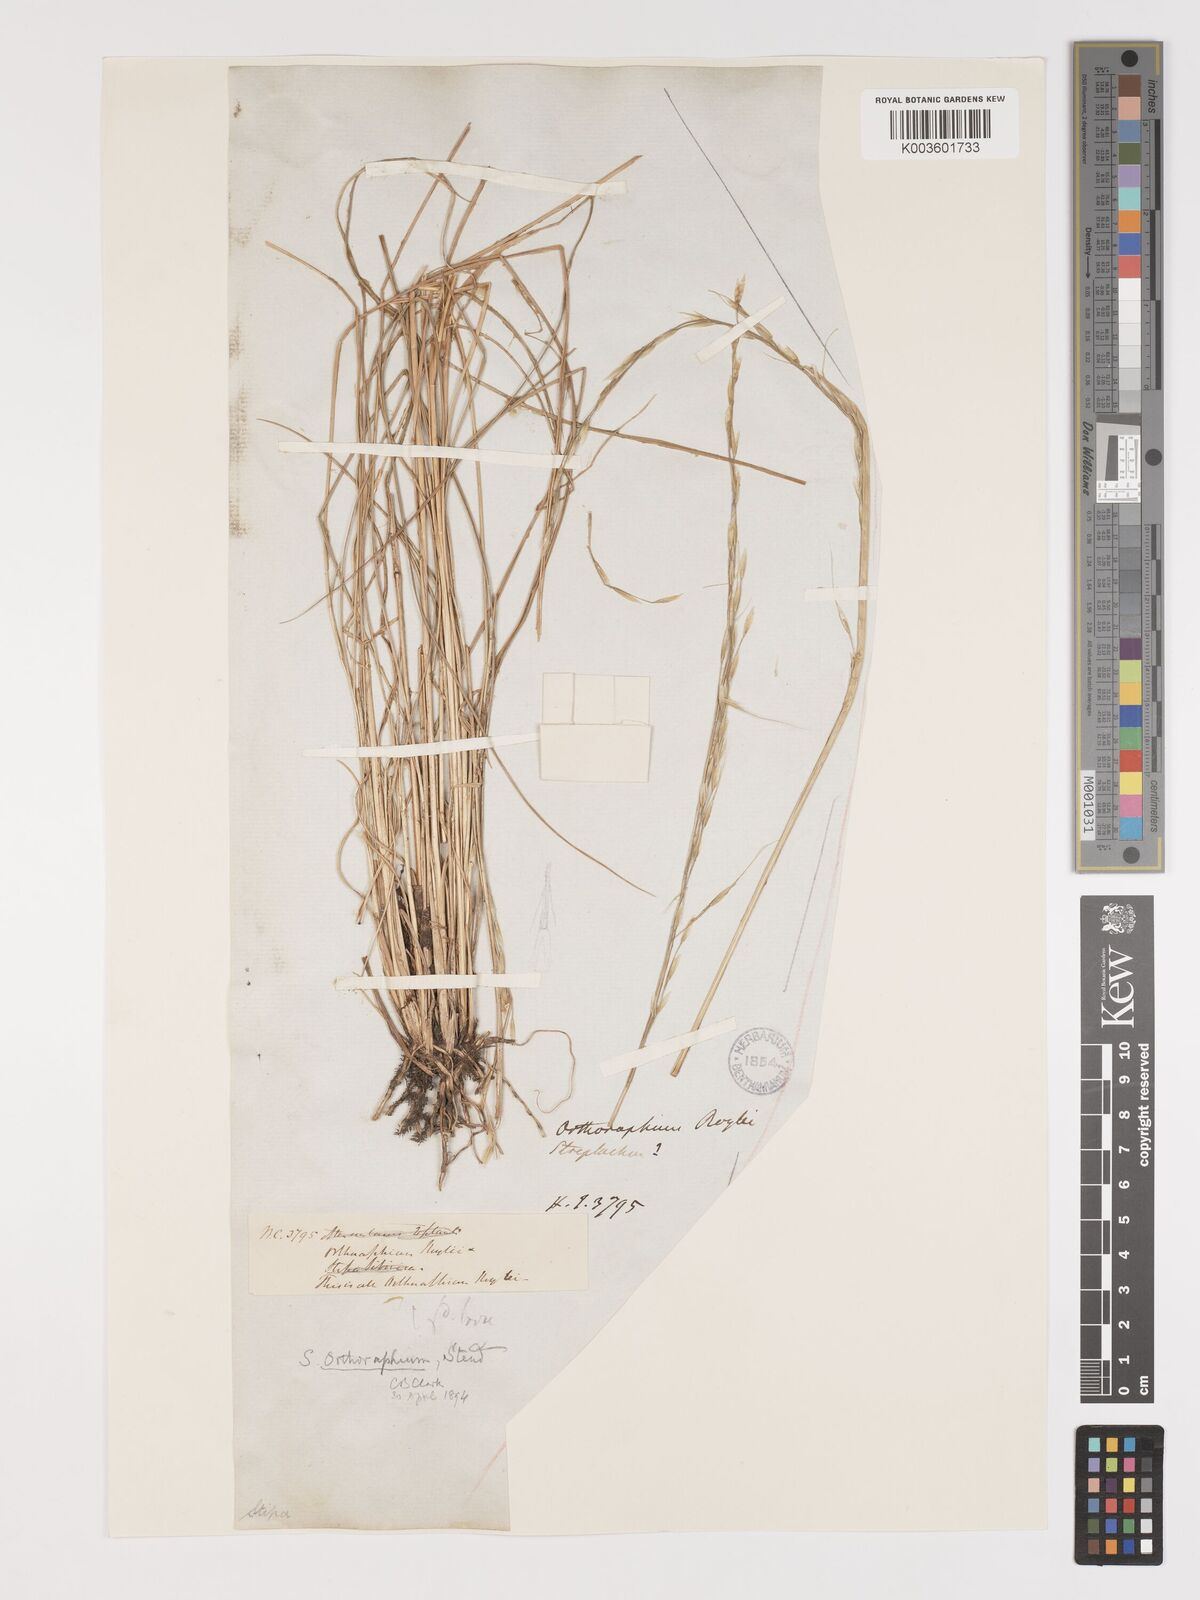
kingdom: Plantae
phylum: Tracheophyta
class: Liliopsida
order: Poales
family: Poaceae
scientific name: Poaceae
